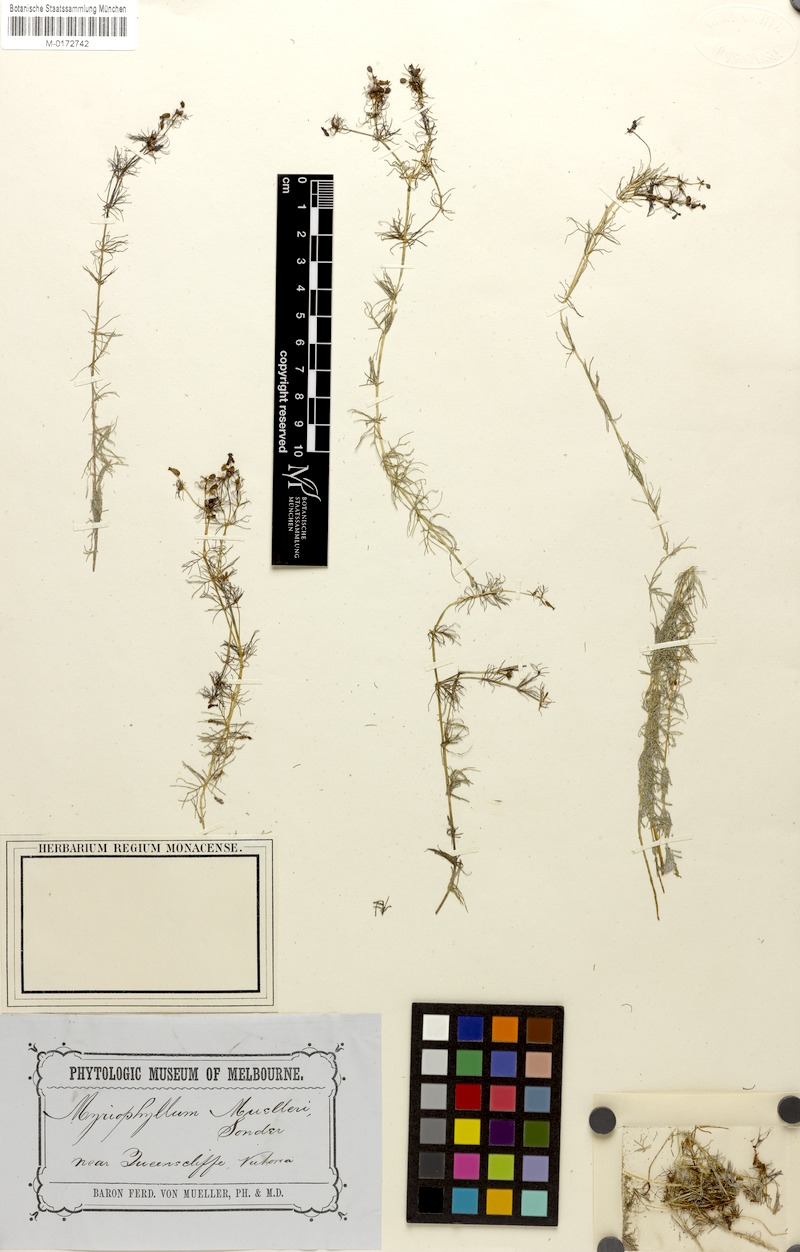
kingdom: Plantae
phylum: Tracheophyta
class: Magnoliopsida
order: Saxifragales
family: Haloragaceae
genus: Myriophyllum
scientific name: Myriophyllum muelleri
